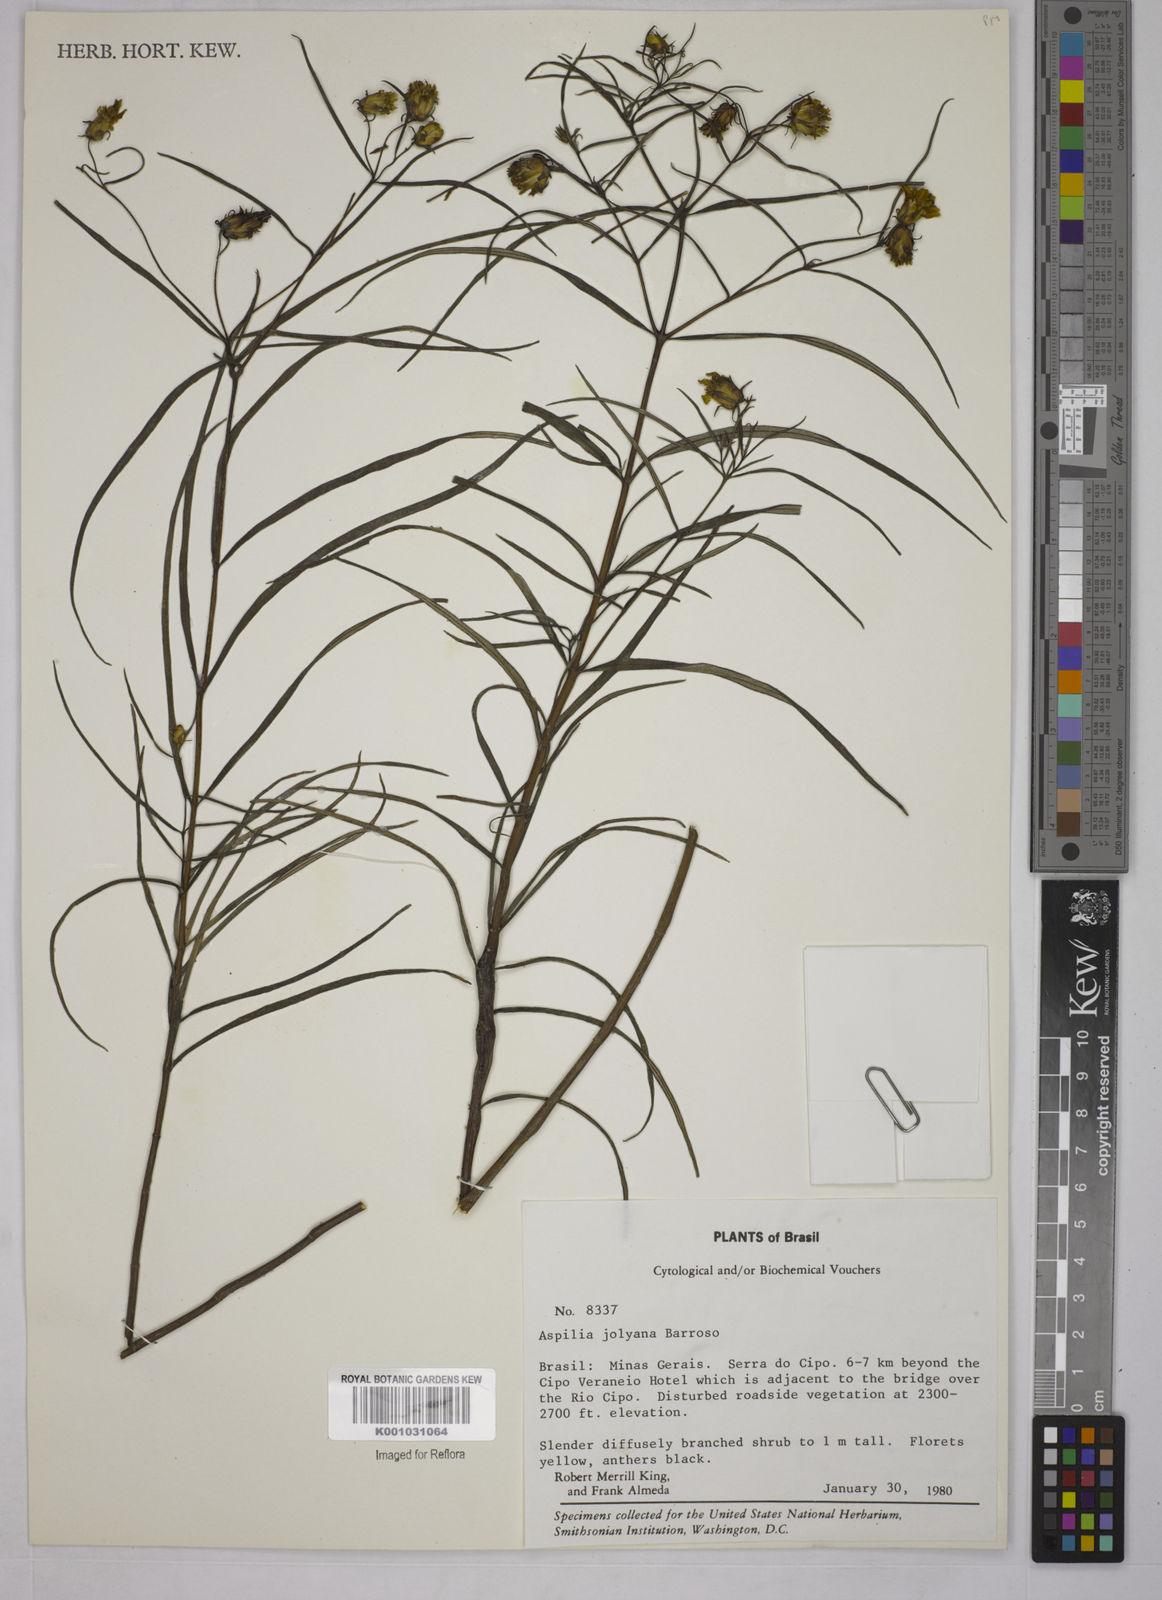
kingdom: Plantae
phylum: Tracheophyta
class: Magnoliopsida
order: Asterales
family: Asteraceae
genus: Aspilia
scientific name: Aspilia jolyana
